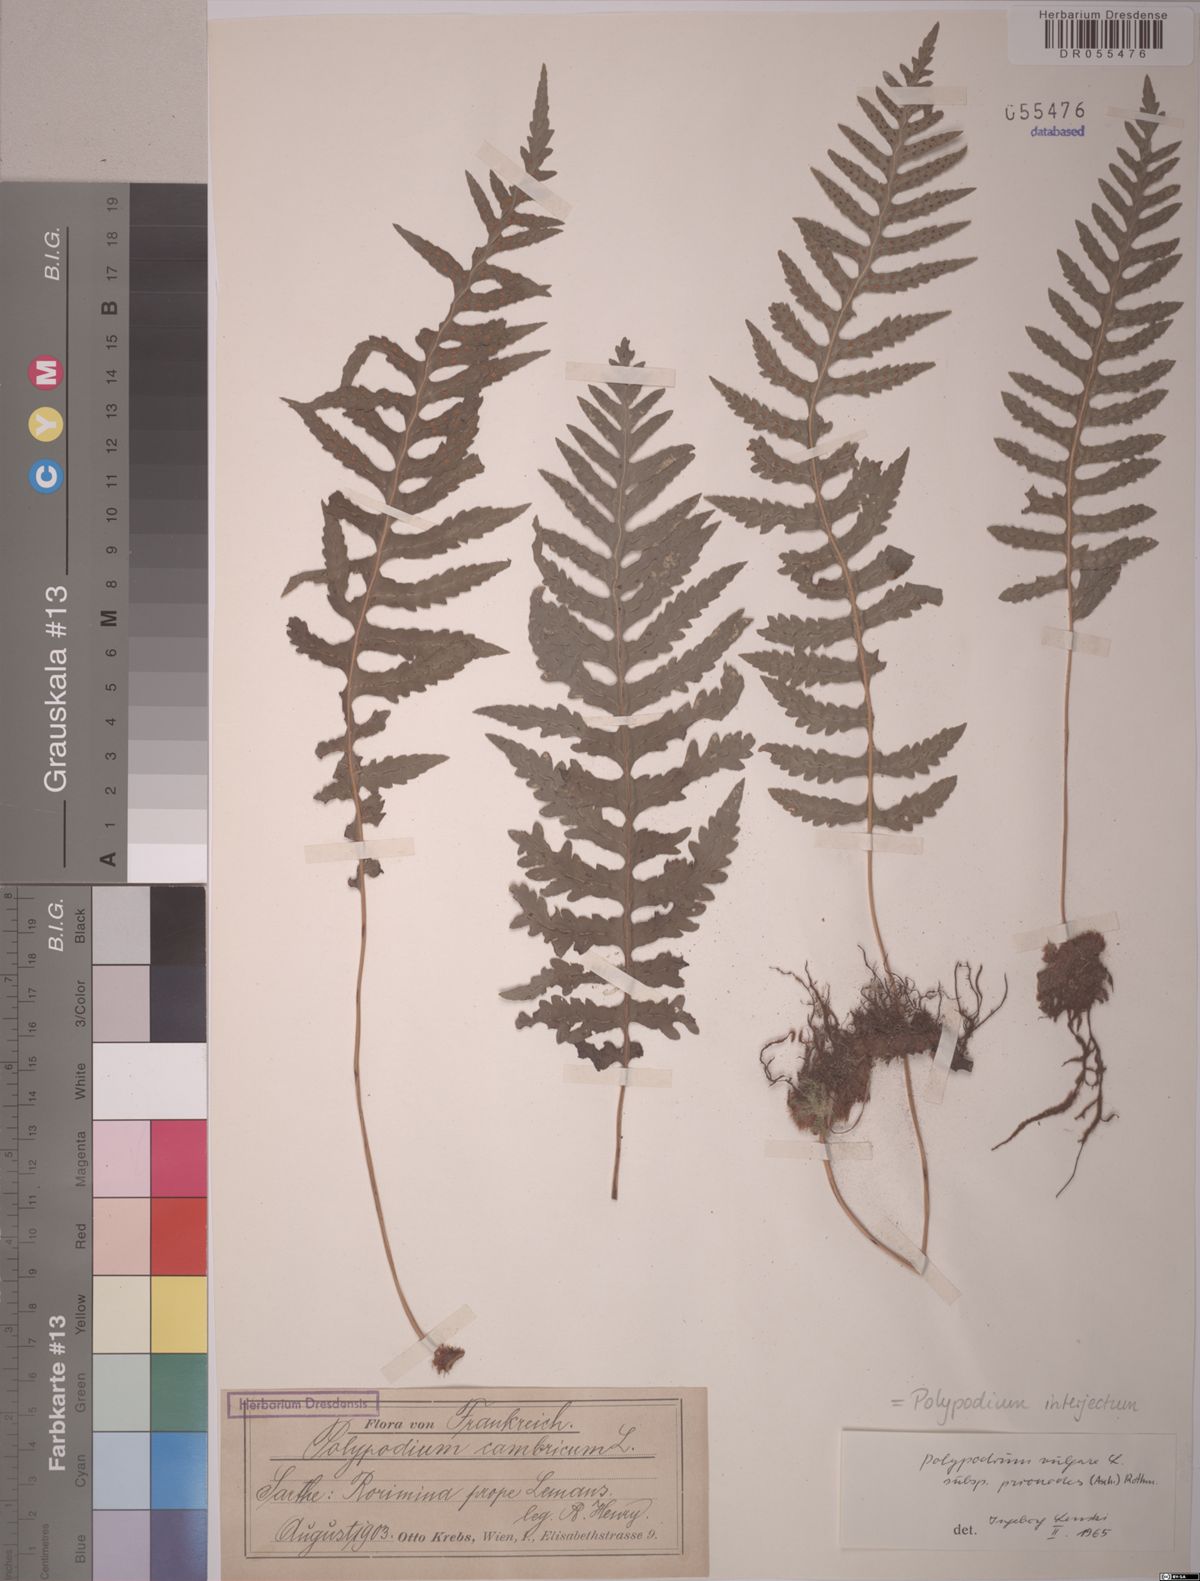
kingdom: Plantae
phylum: Tracheophyta
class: Polypodiopsida
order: Polypodiales
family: Polypodiaceae
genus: Polypodium
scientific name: Polypodium interjectum
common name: Intermediate polypody
